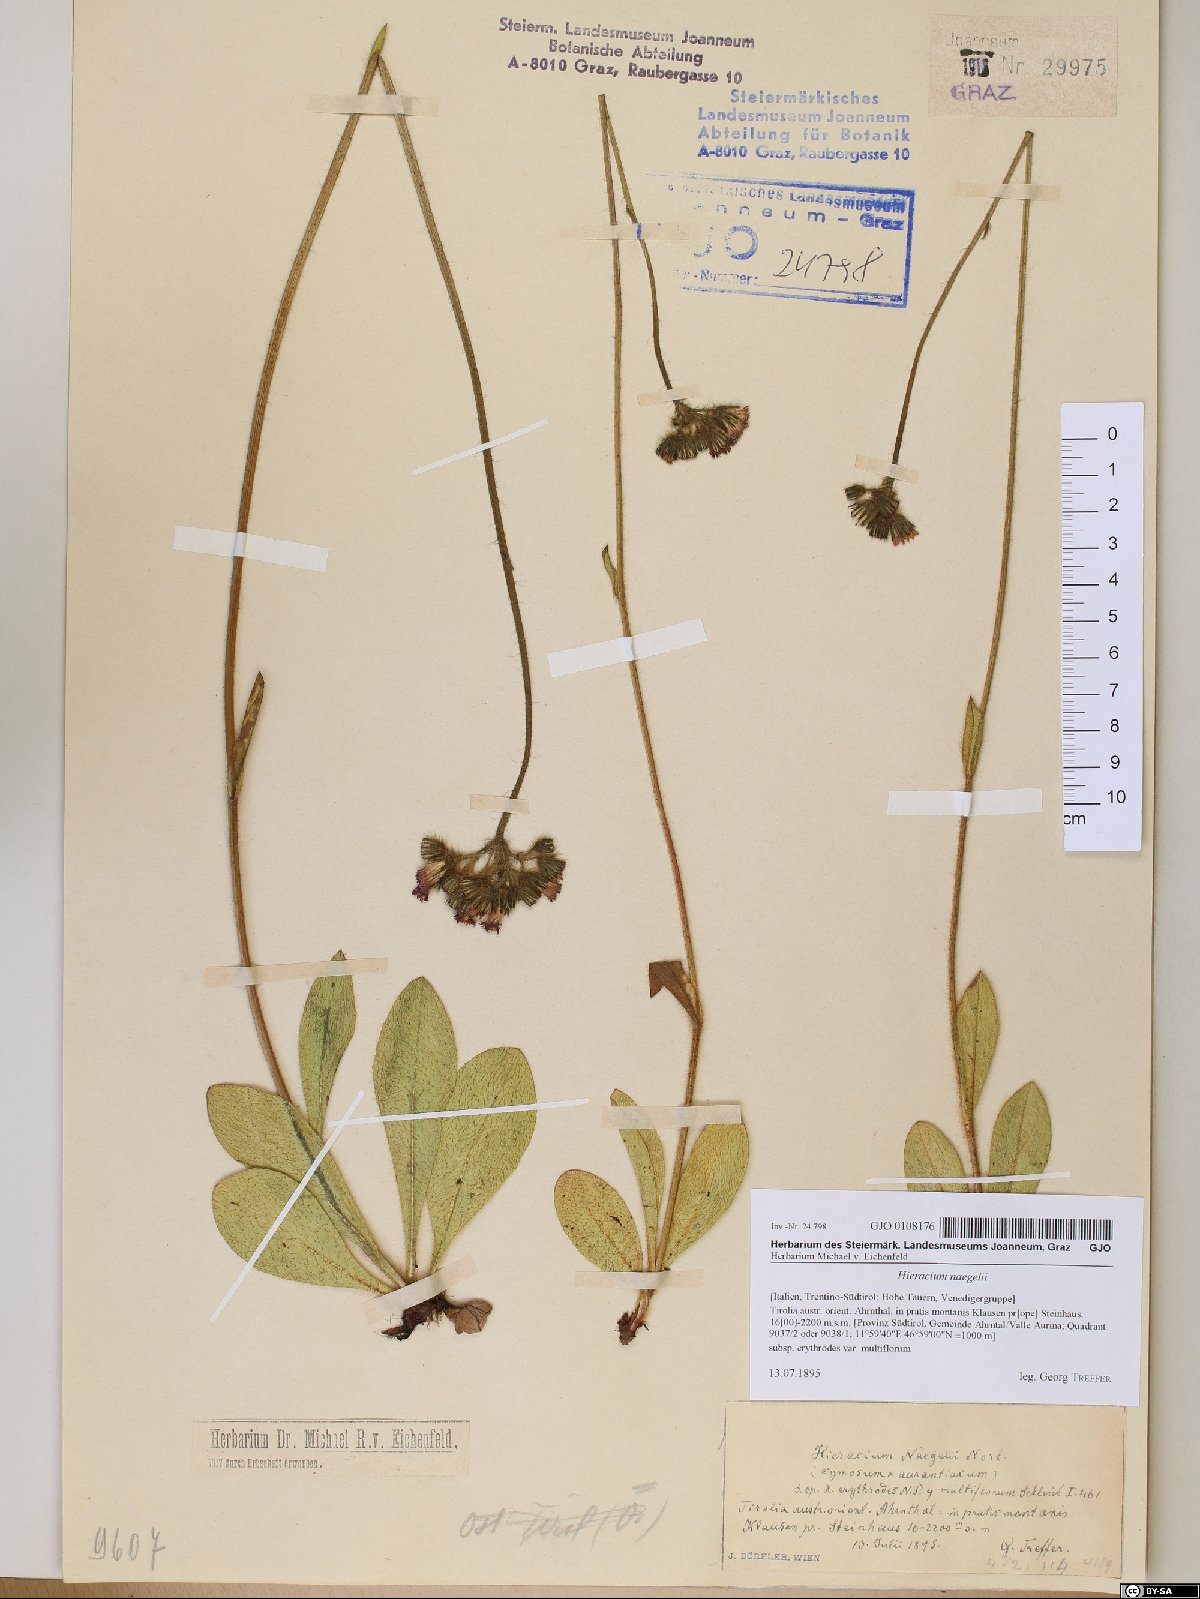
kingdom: Plantae
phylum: Tracheophyta
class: Magnoliopsida
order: Asterales
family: Asteraceae
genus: Pilosella
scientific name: Pilosella guthnikiana
